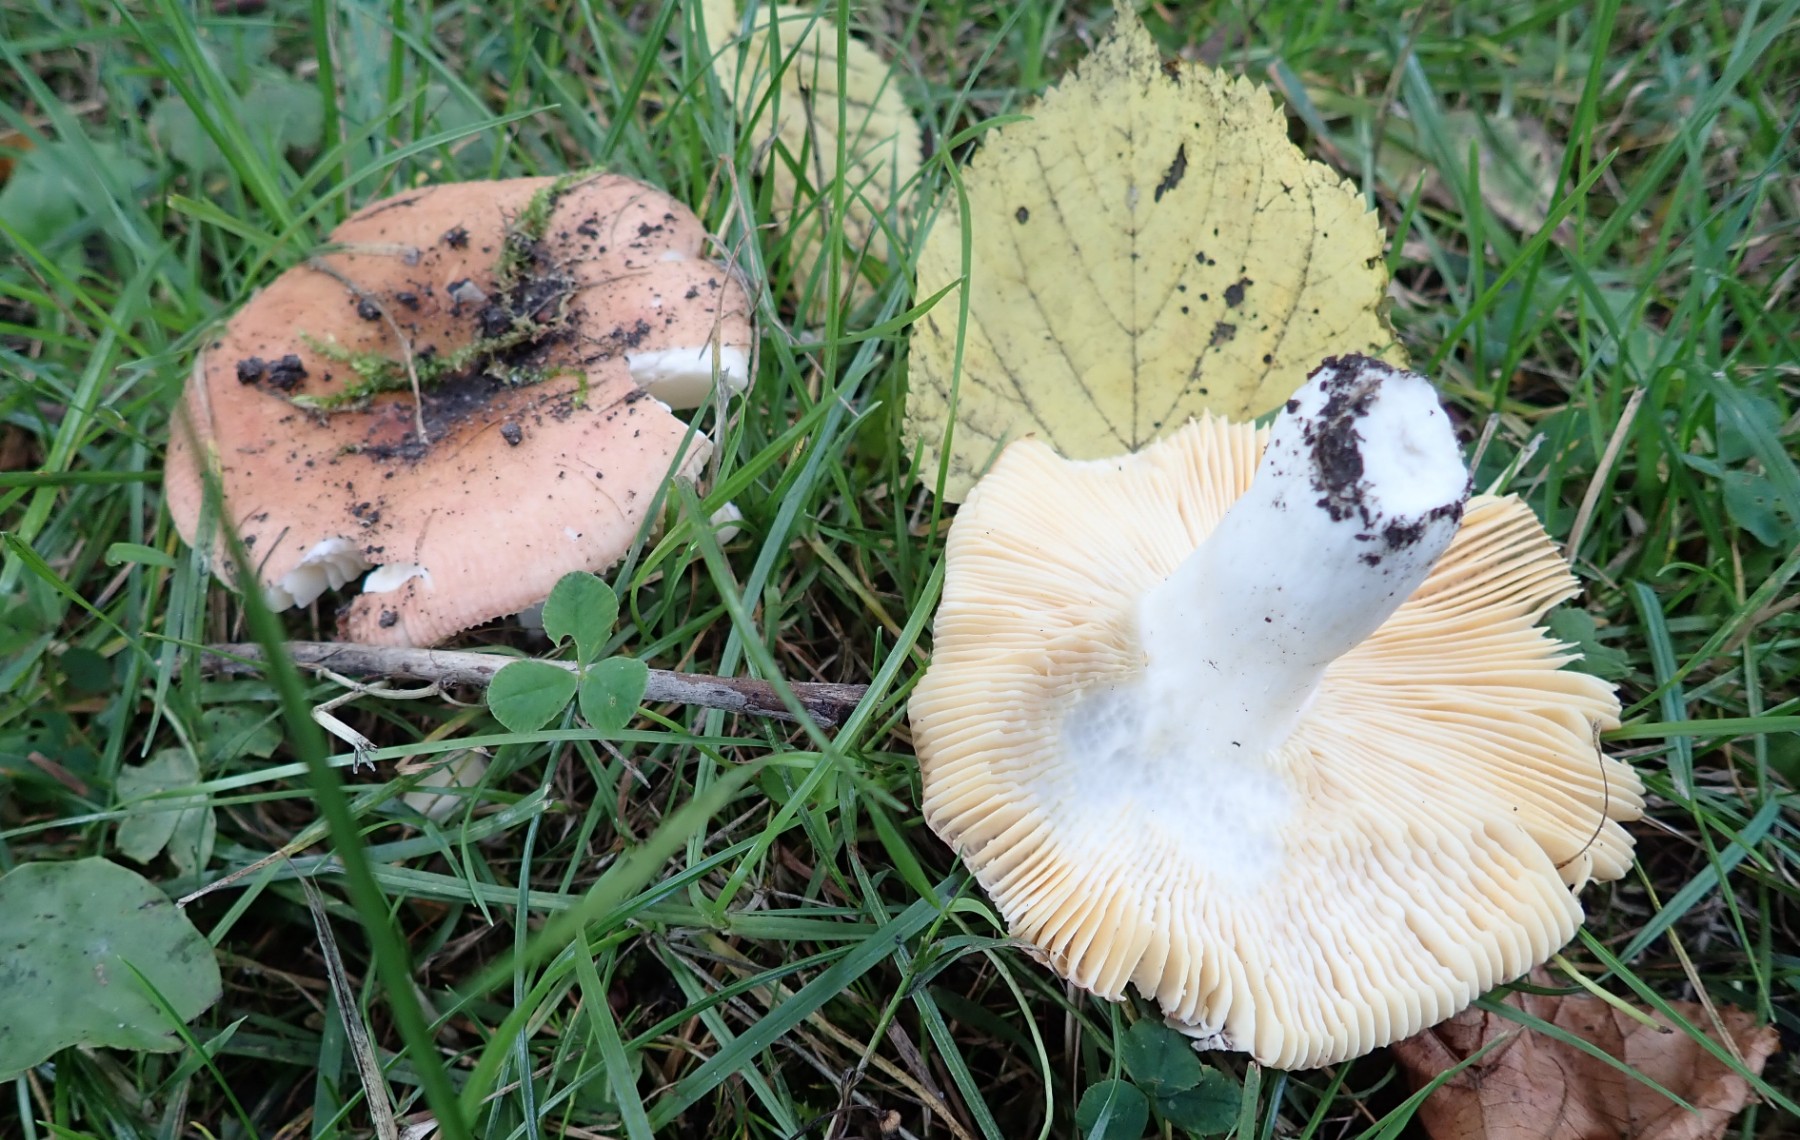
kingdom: Fungi
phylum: Basidiomycota
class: Agaricomycetes
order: Russulales
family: Russulaceae
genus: Russula
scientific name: Russula veternosa
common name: blødkødet skørhat
